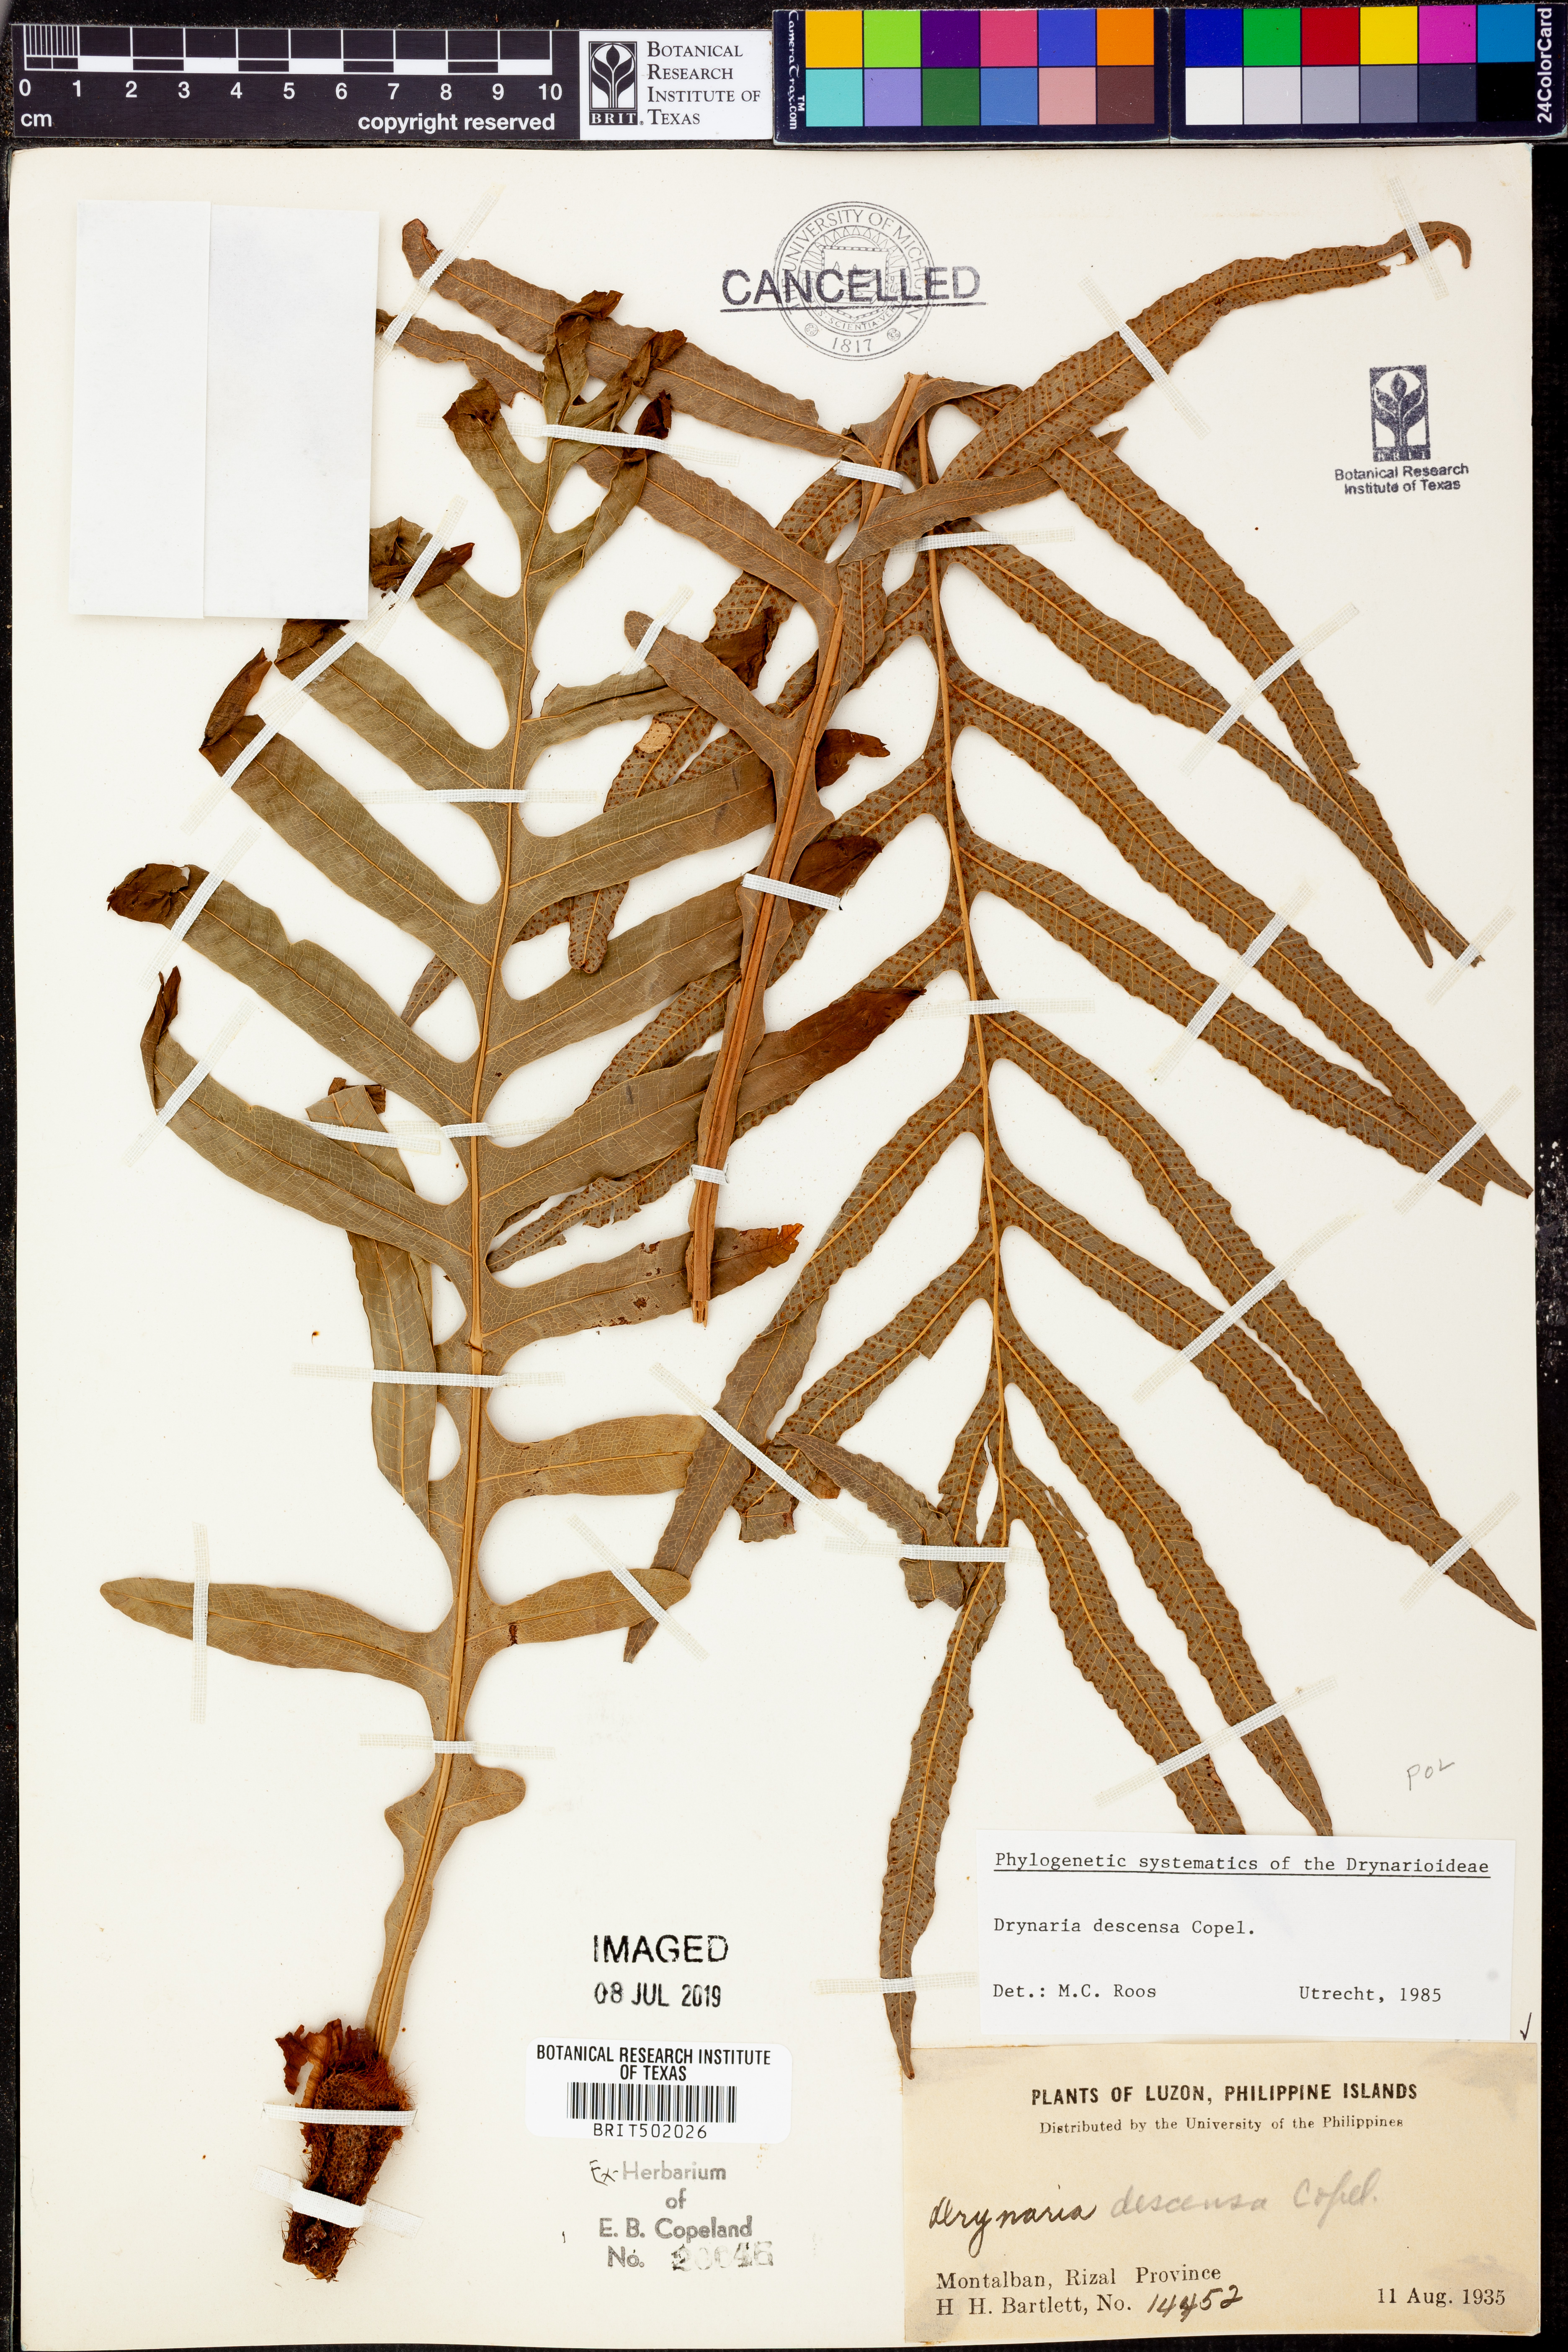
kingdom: Plantae
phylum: Tracheophyta
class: Polypodiopsida
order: Polypodiales
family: Polypodiaceae
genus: Drynaria
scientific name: Drynaria descensa
